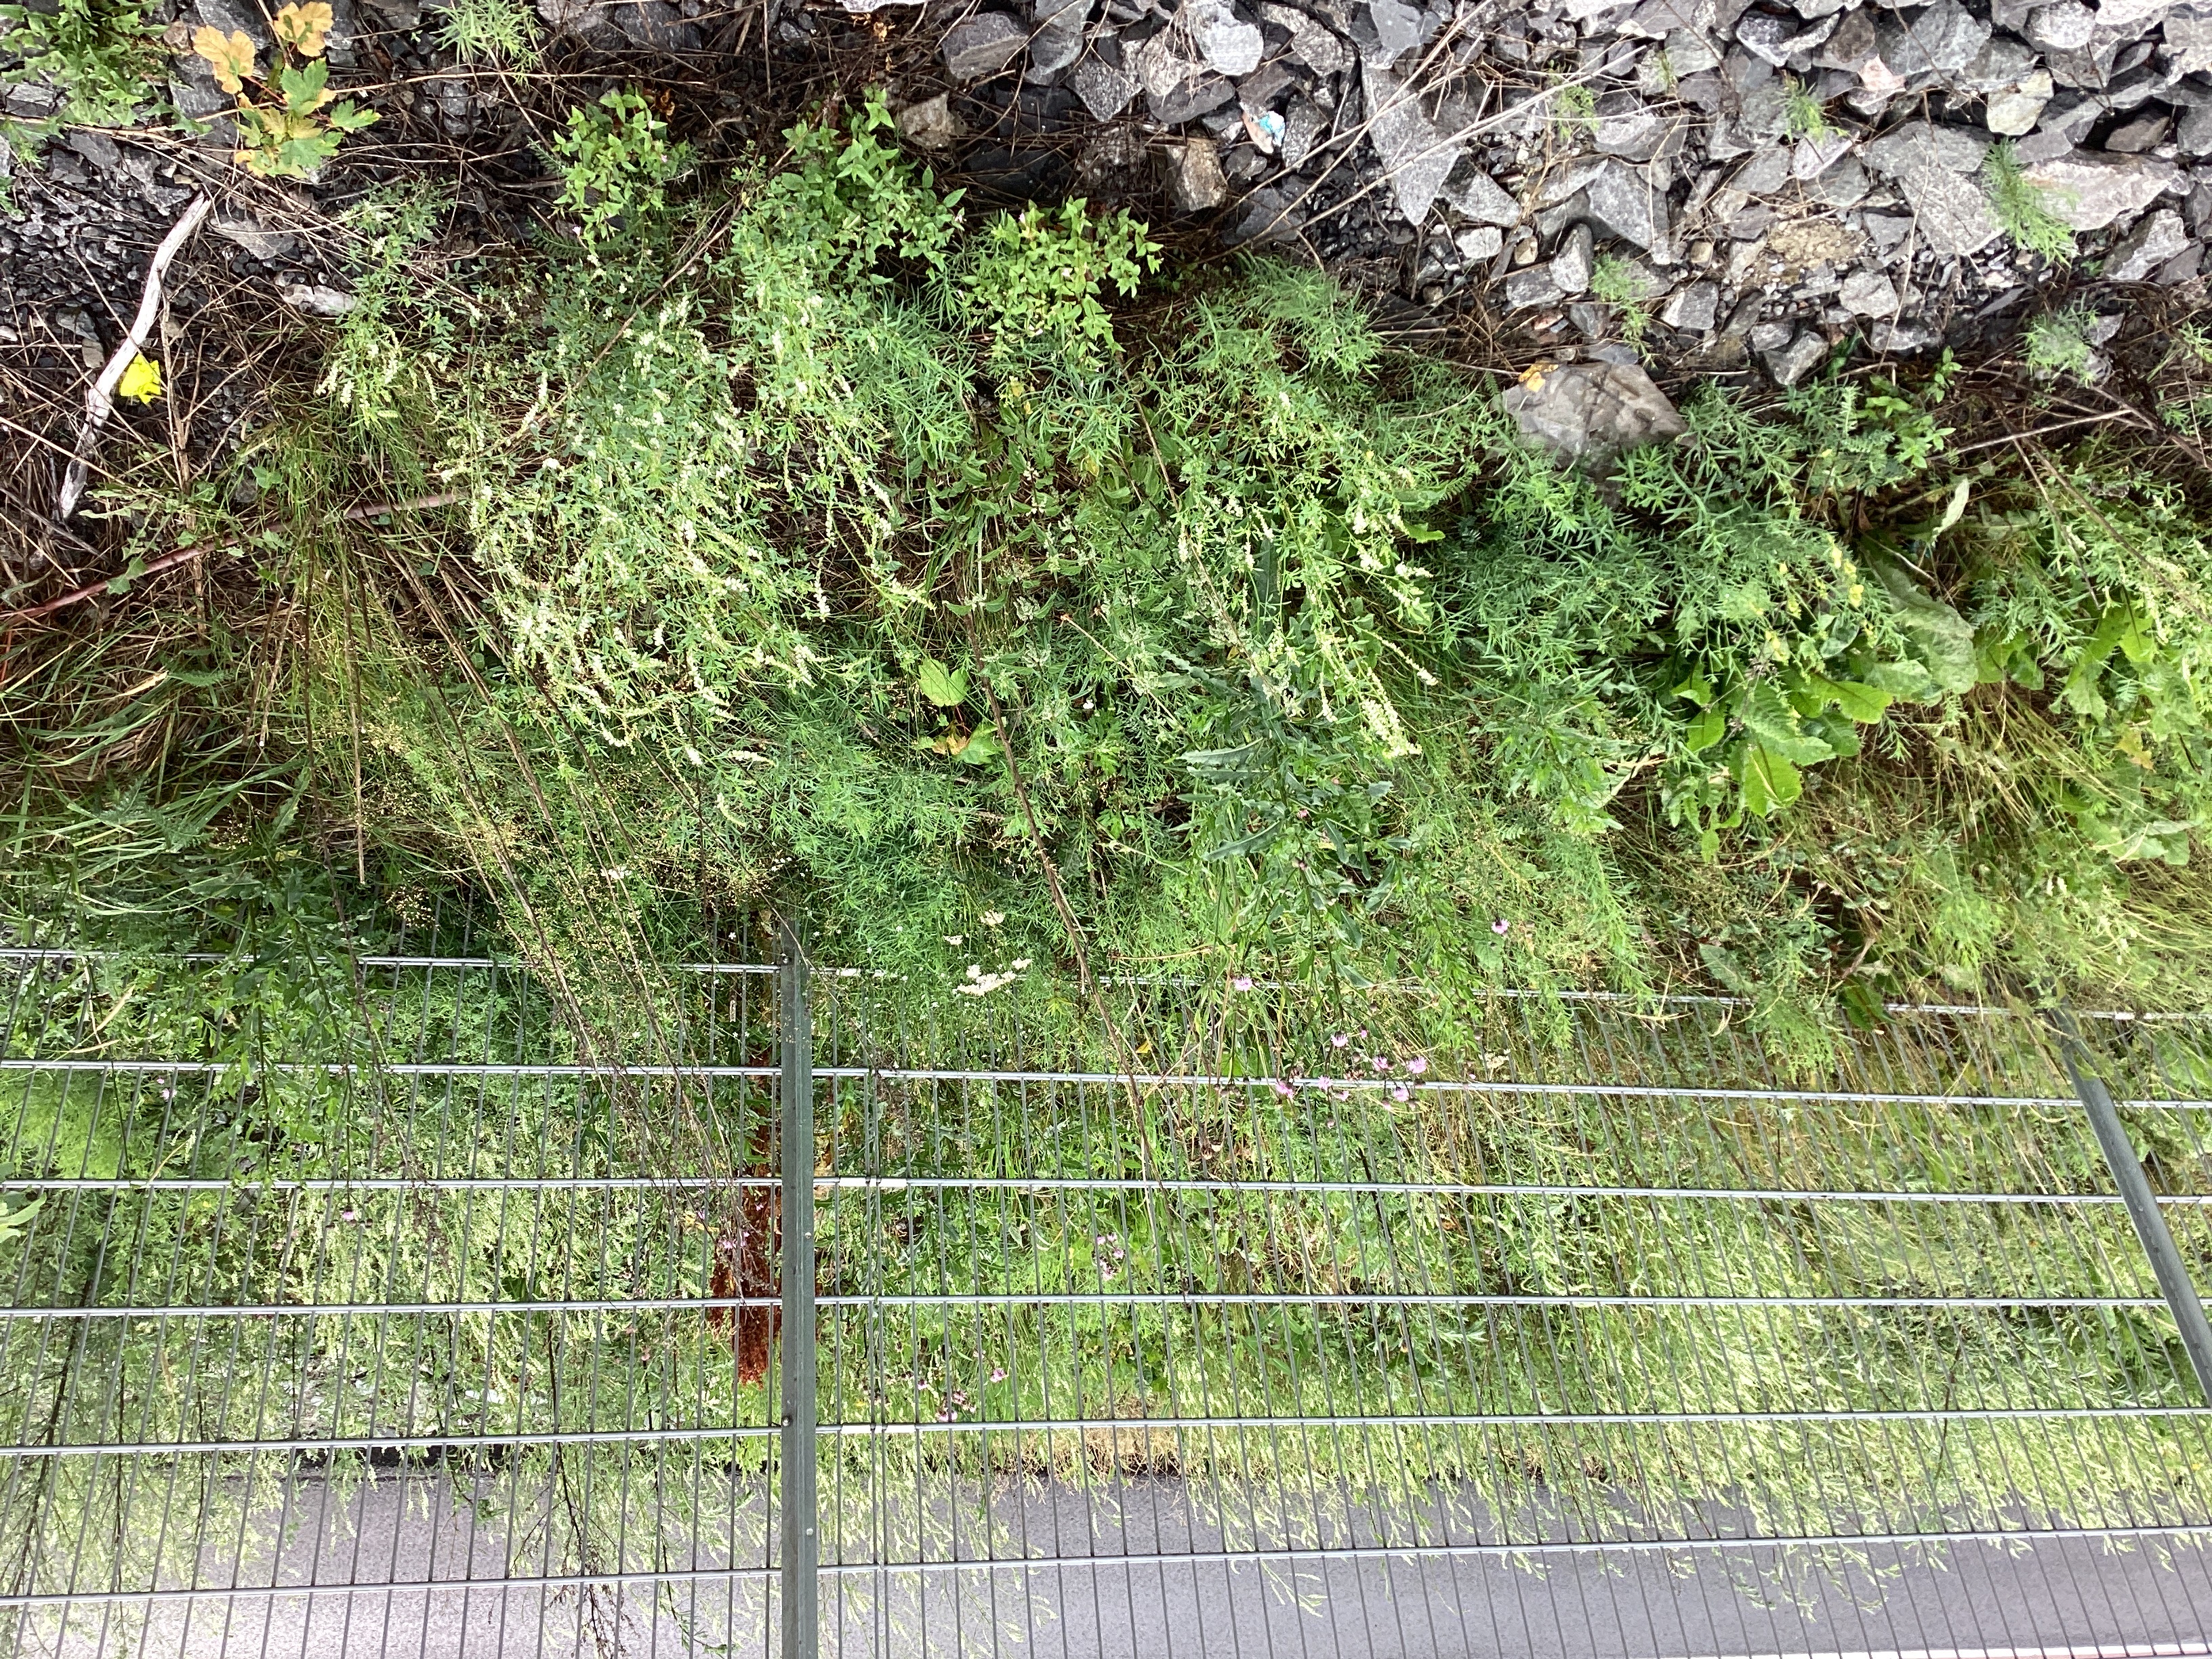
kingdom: Plantae
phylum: Tracheophyta
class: Magnoliopsida
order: Fabales
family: Fabaceae
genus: Melilotus
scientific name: Melilotus albus
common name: hvitsteinkløver
